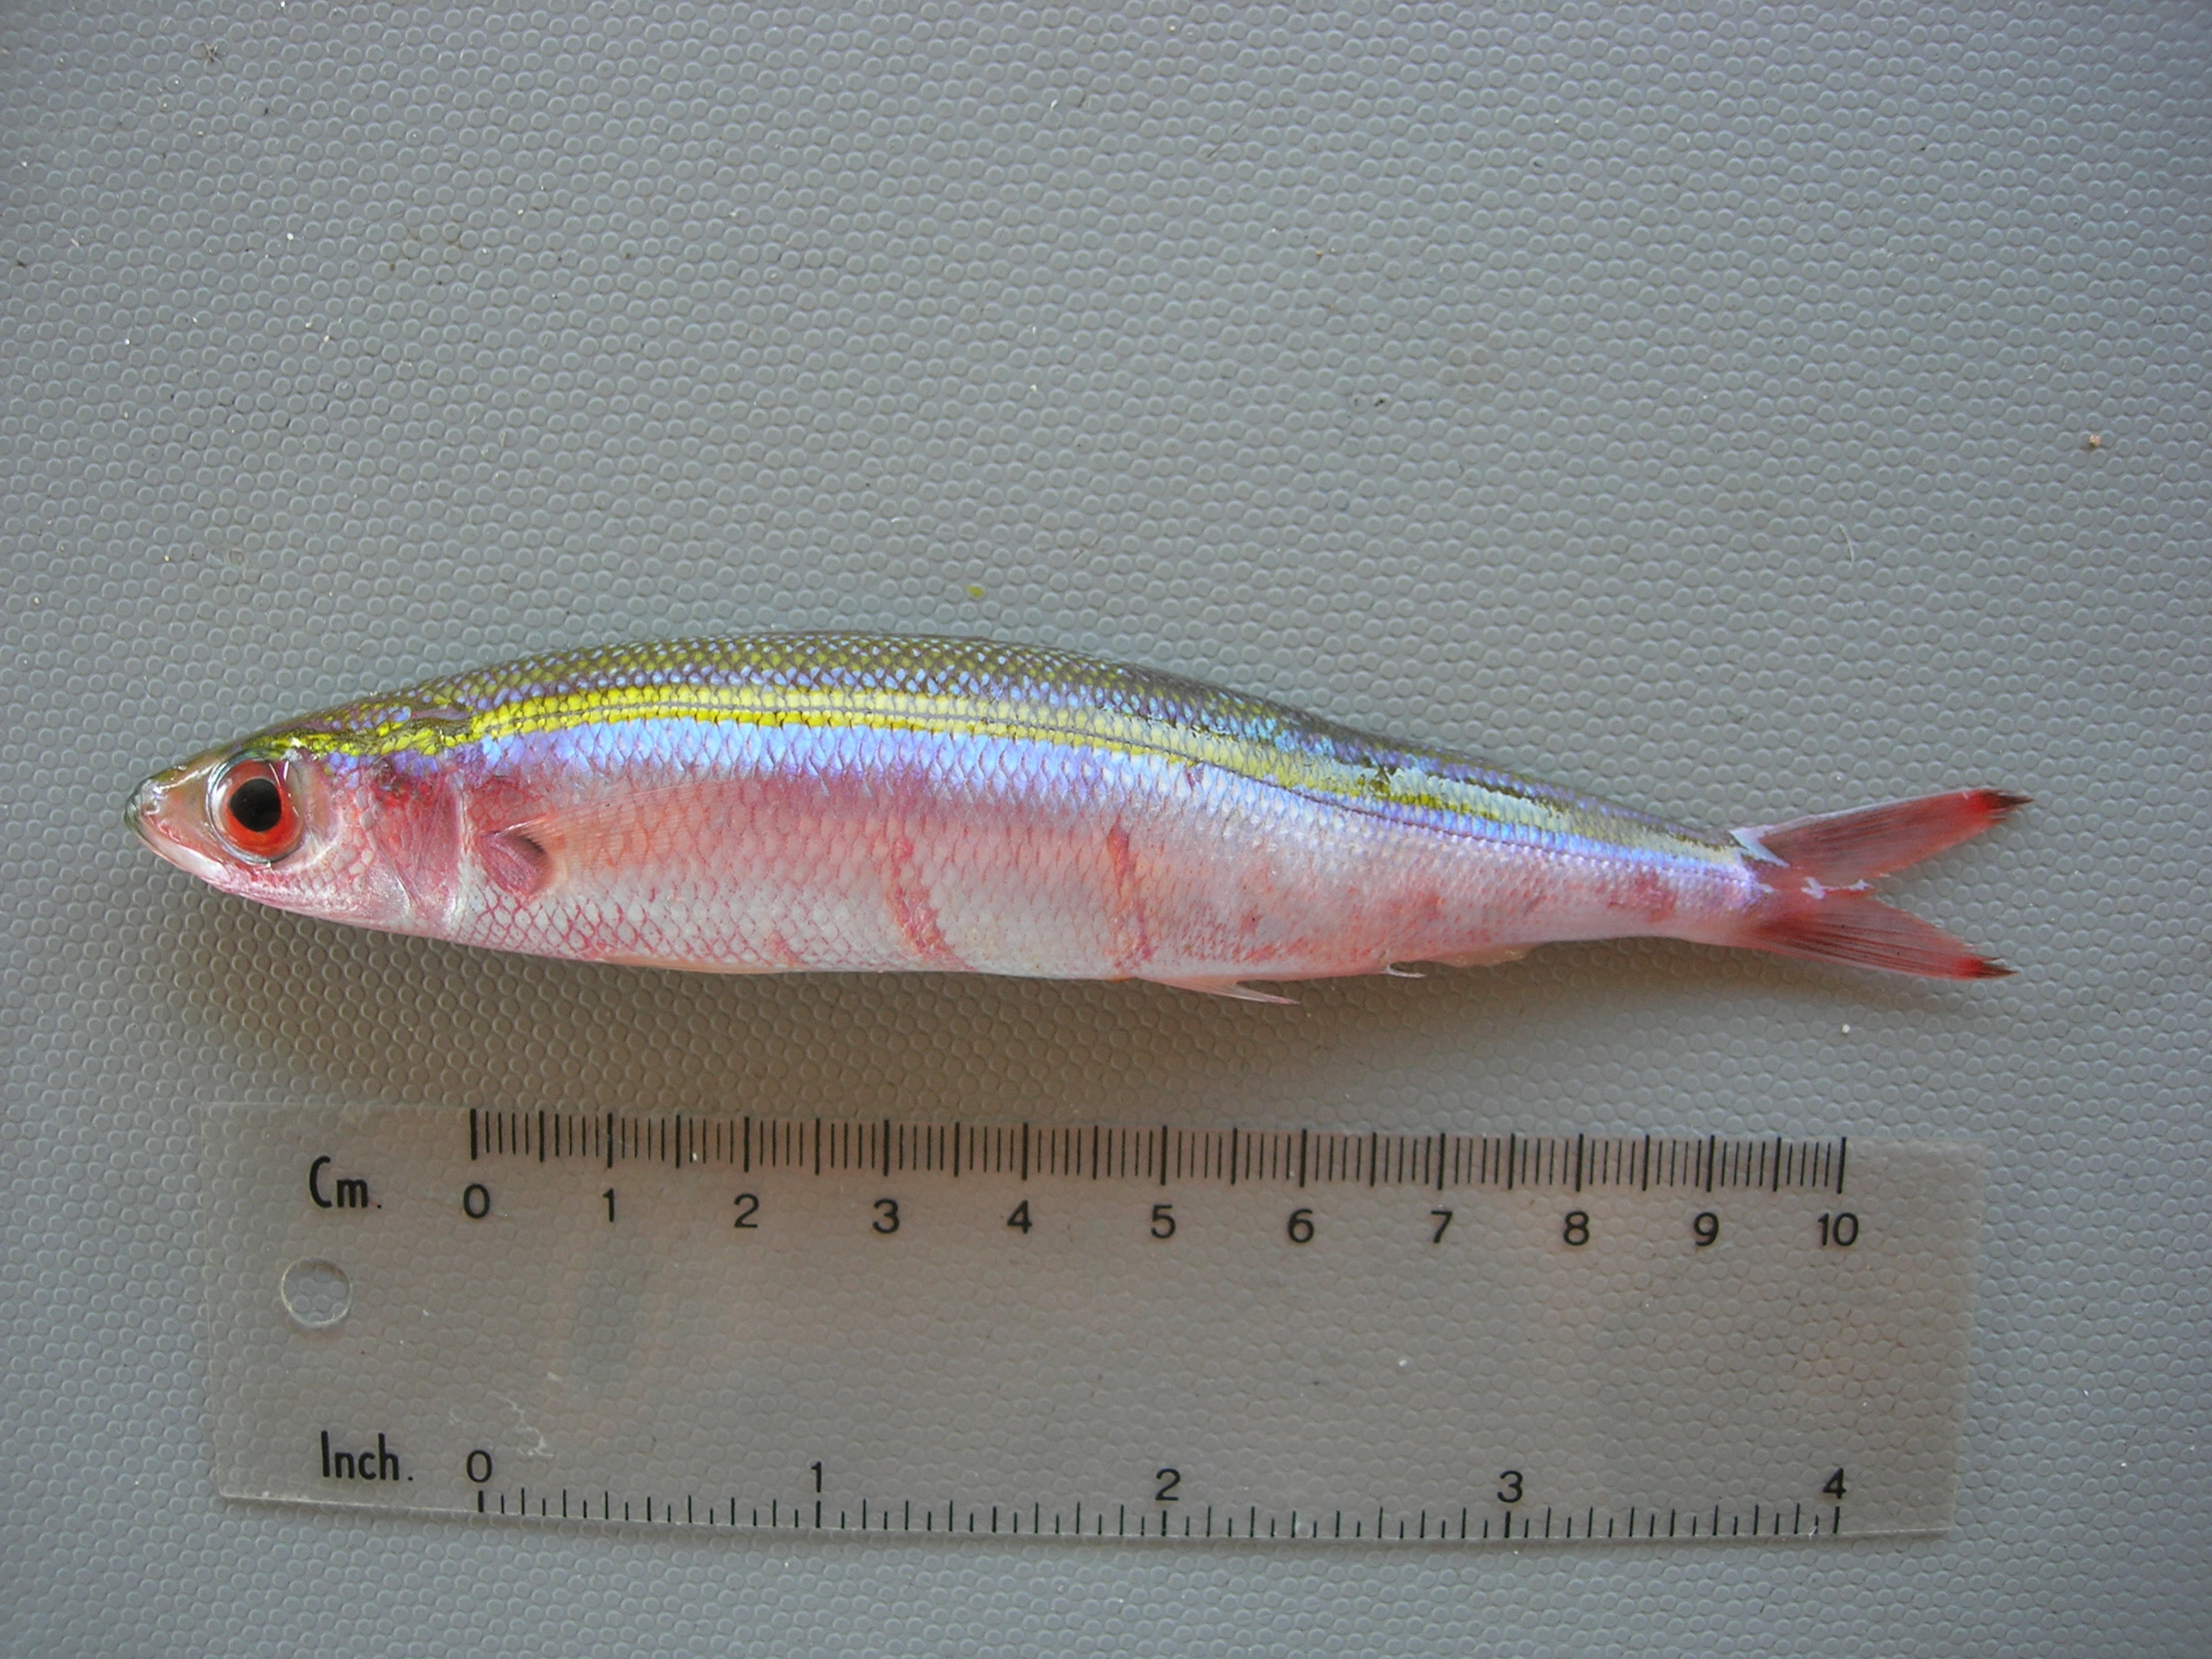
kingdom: Animalia
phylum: Chordata
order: Perciformes
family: Caesionidae
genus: Gymnocaesio
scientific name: Gymnocaesio gymnoptera
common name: Slender fusilier
